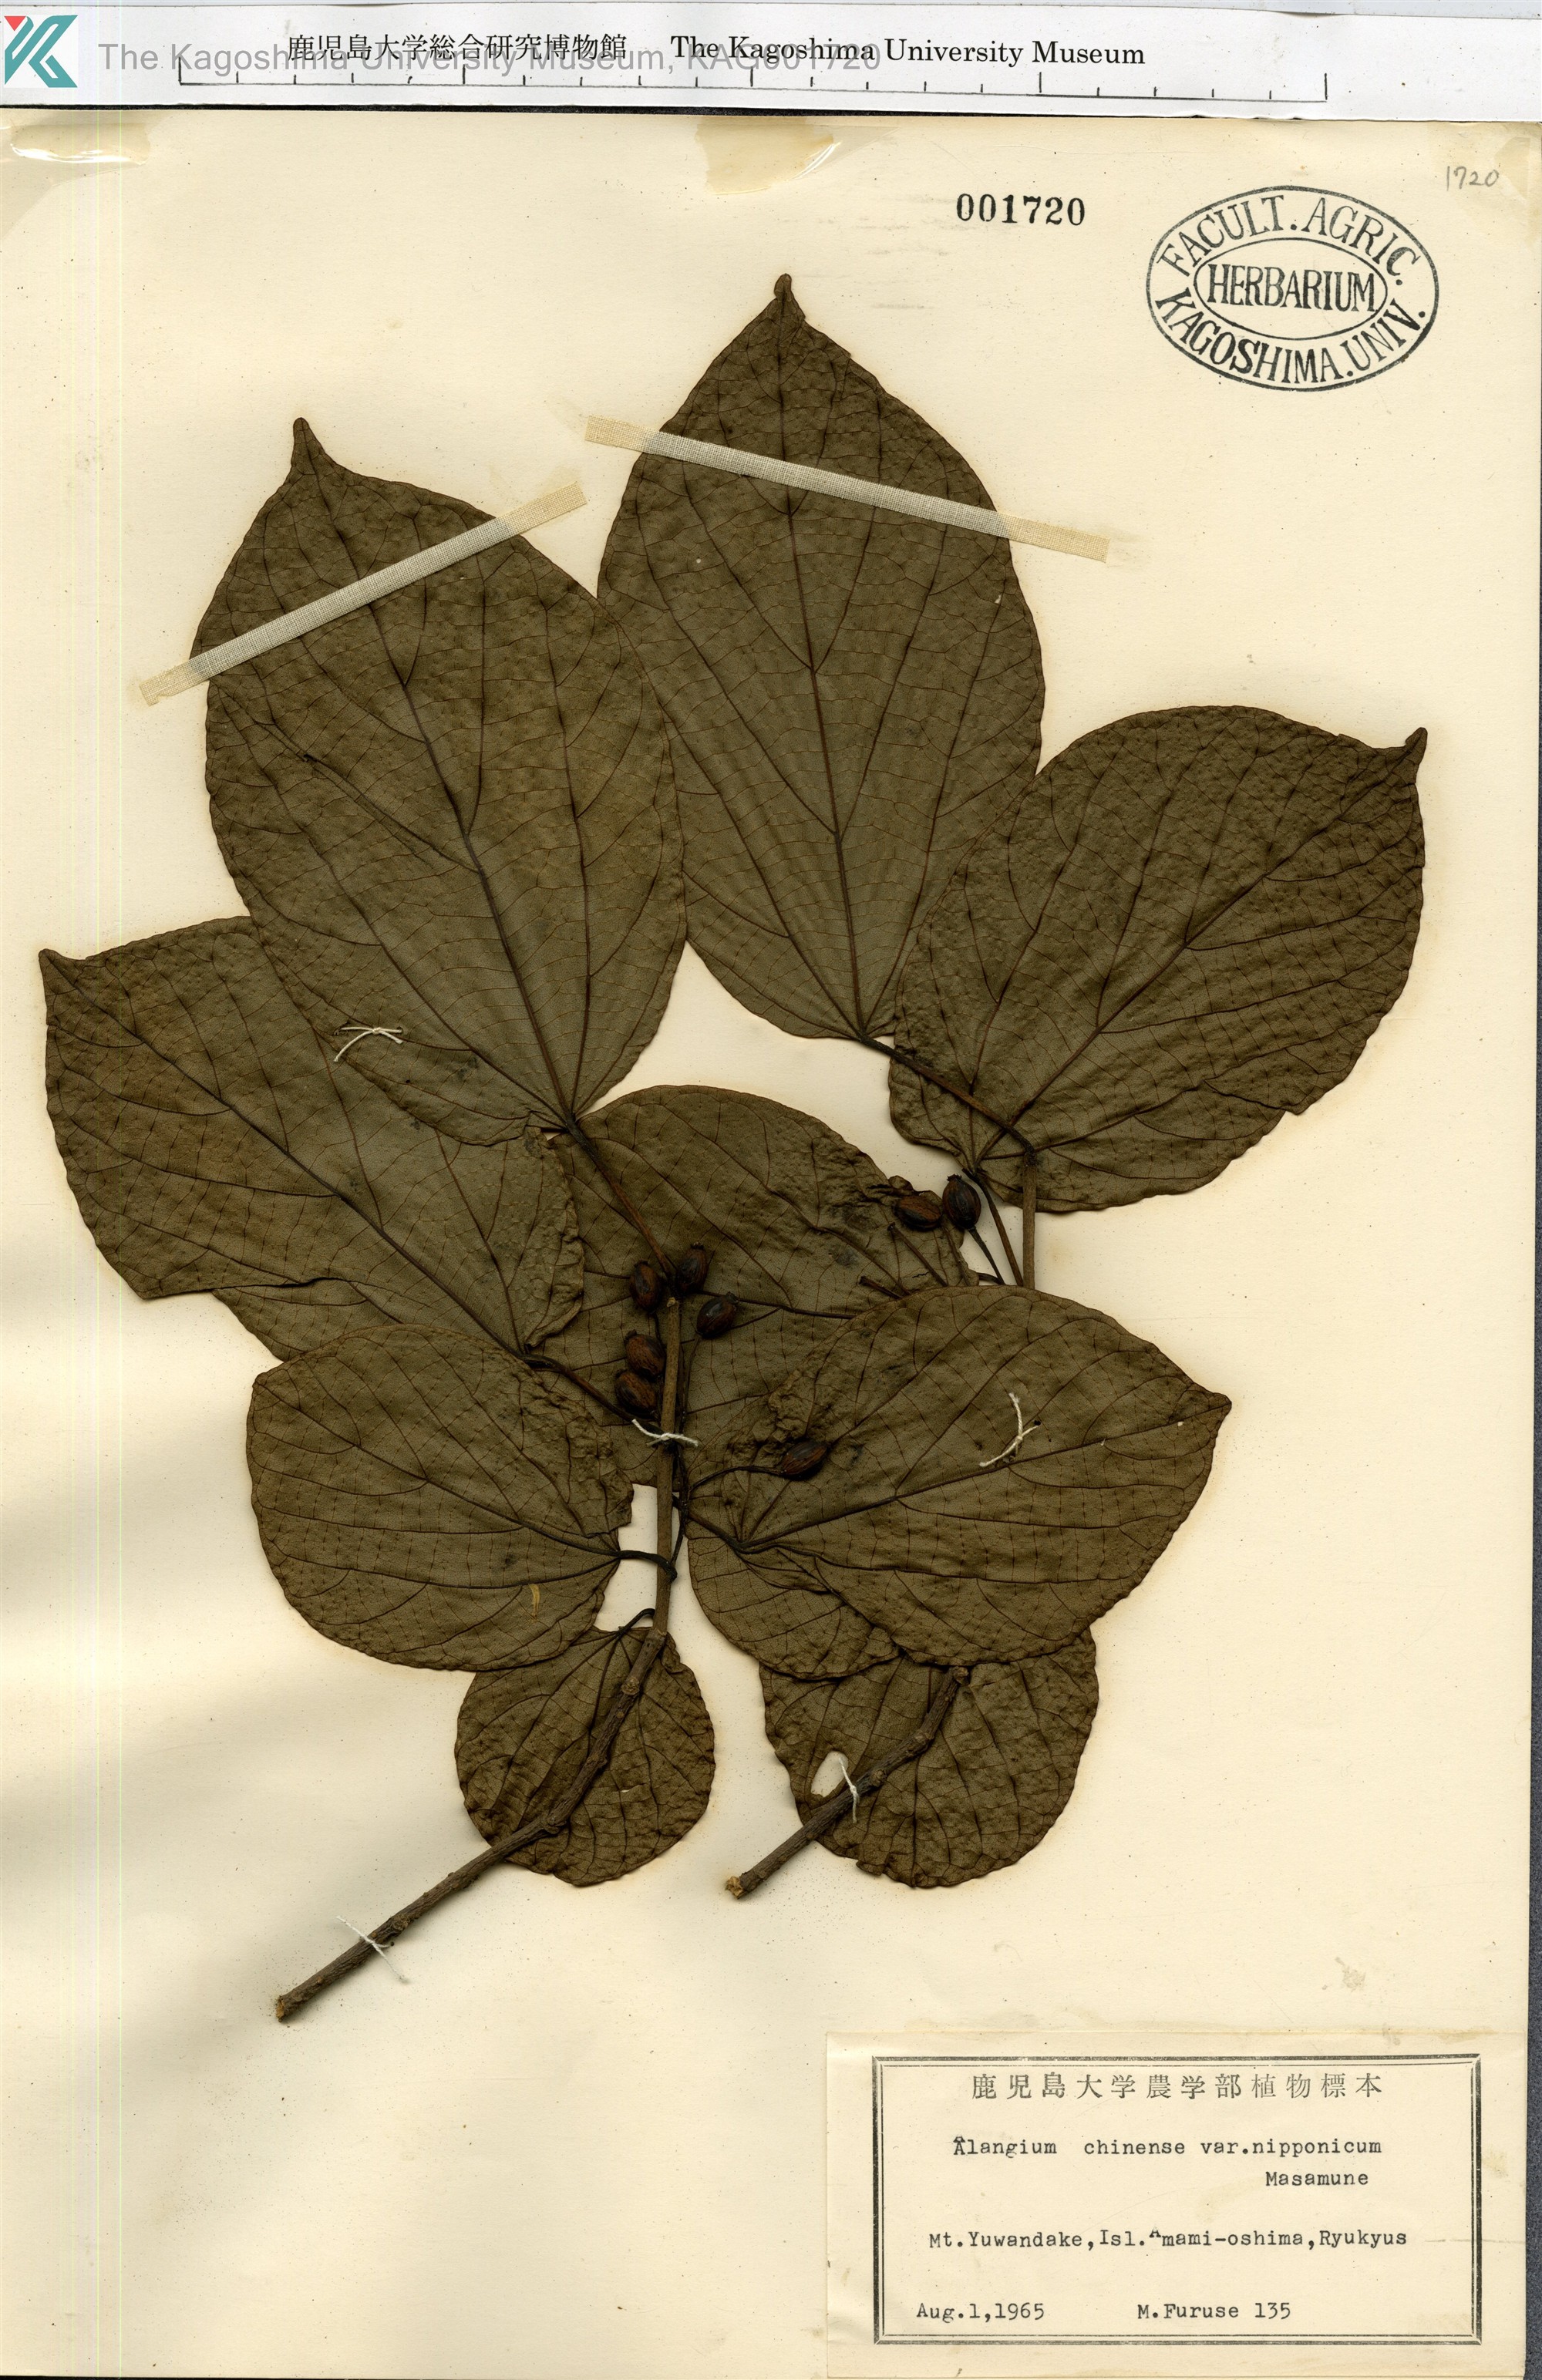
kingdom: Plantae
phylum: Tracheophyta
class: Magnoliopsida
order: Cornales
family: Cornaceae
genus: Alangium
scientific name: Alangium premnifolium
